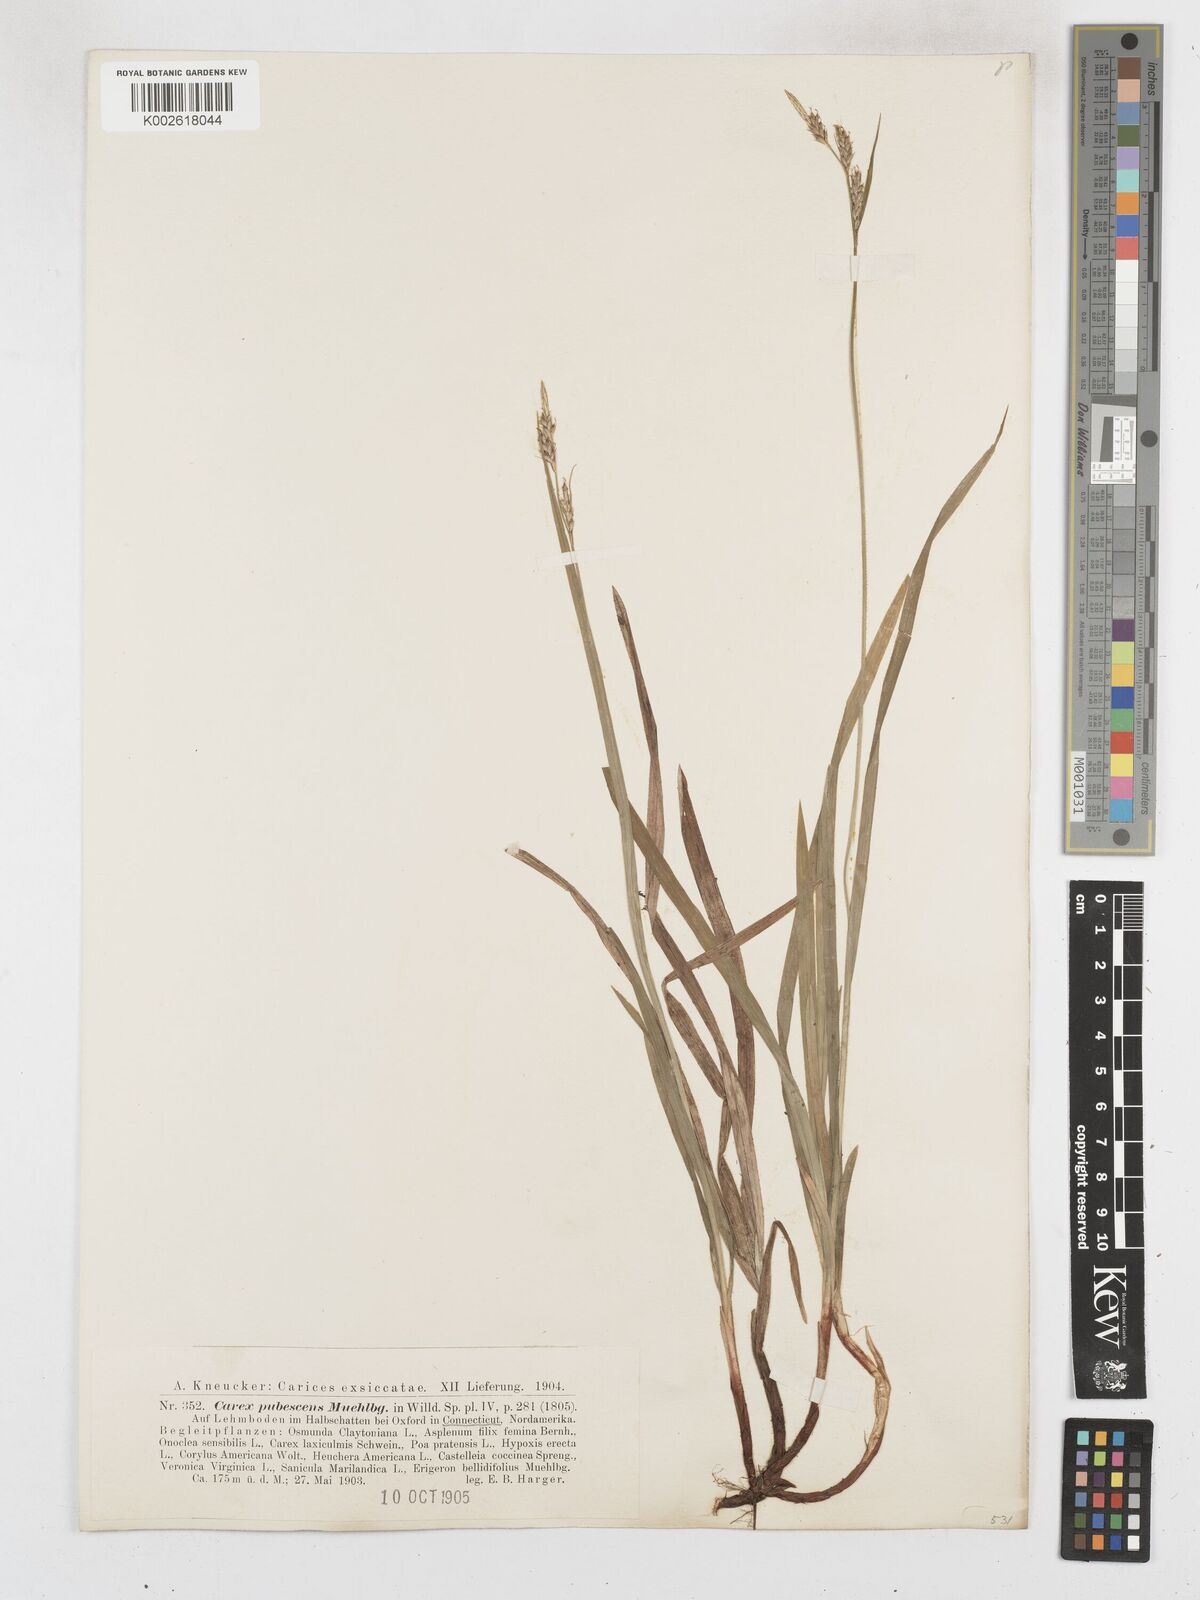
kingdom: Plantae
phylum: Tracheophyta
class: Liliopsida
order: Poales
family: Cyperaceae
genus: Carex
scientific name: Carex hirtifolia
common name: Hairy sedge
